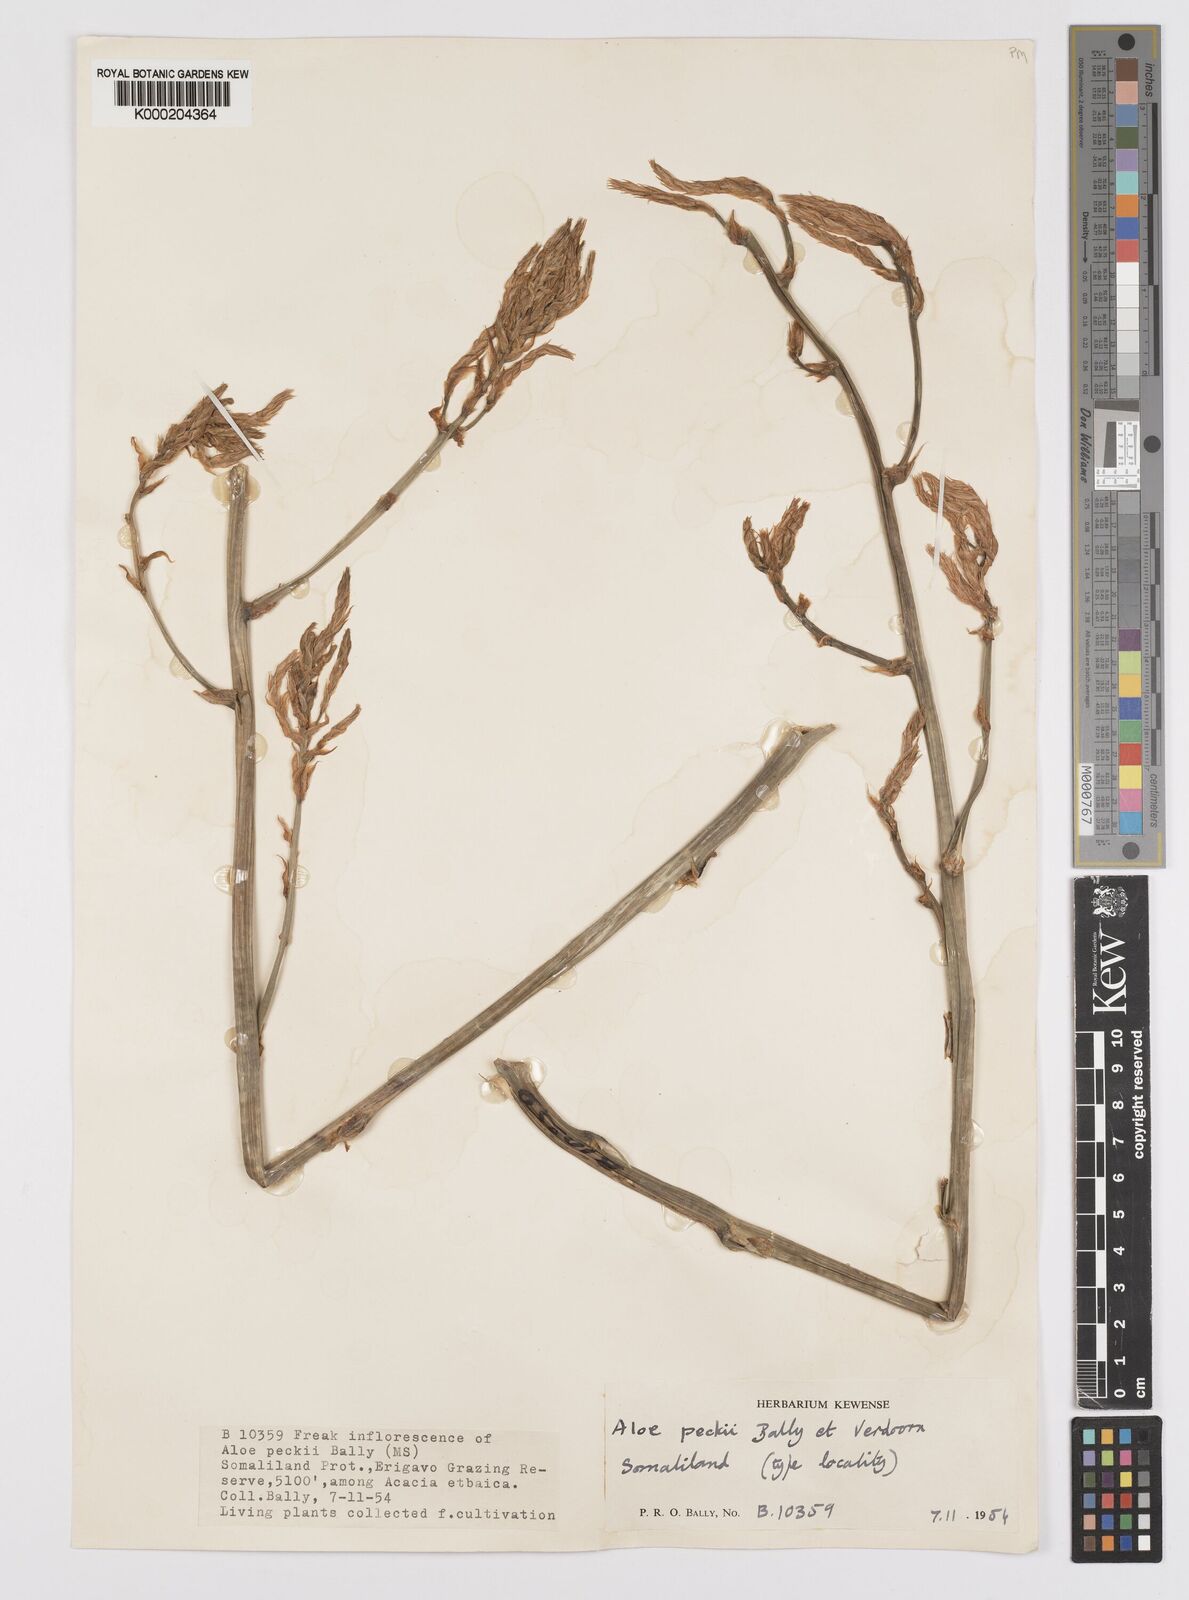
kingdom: Plantae
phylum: Tracheophyta
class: Liliopsida
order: Asparagales
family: Asphodelaceae
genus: Aloe
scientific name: Aloe peckii
